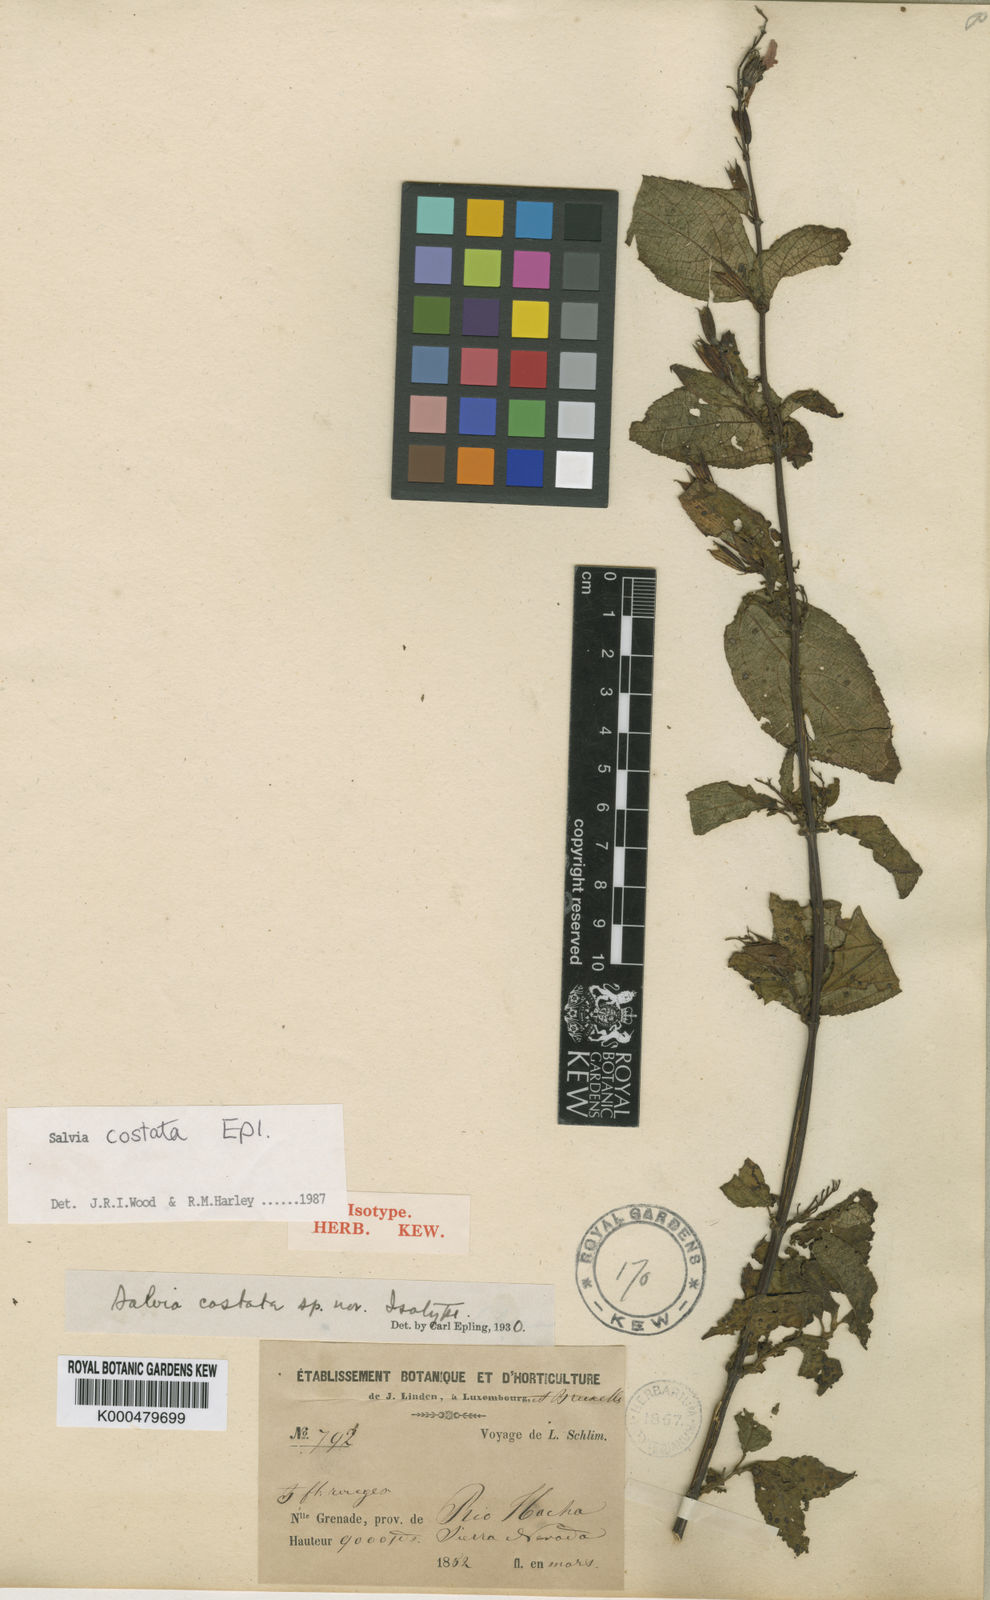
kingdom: Plantae
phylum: Tracheophyta
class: Magnoliopsida
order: Lamiales
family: Lamiaceae
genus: Salvia
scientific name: Salvia costata
